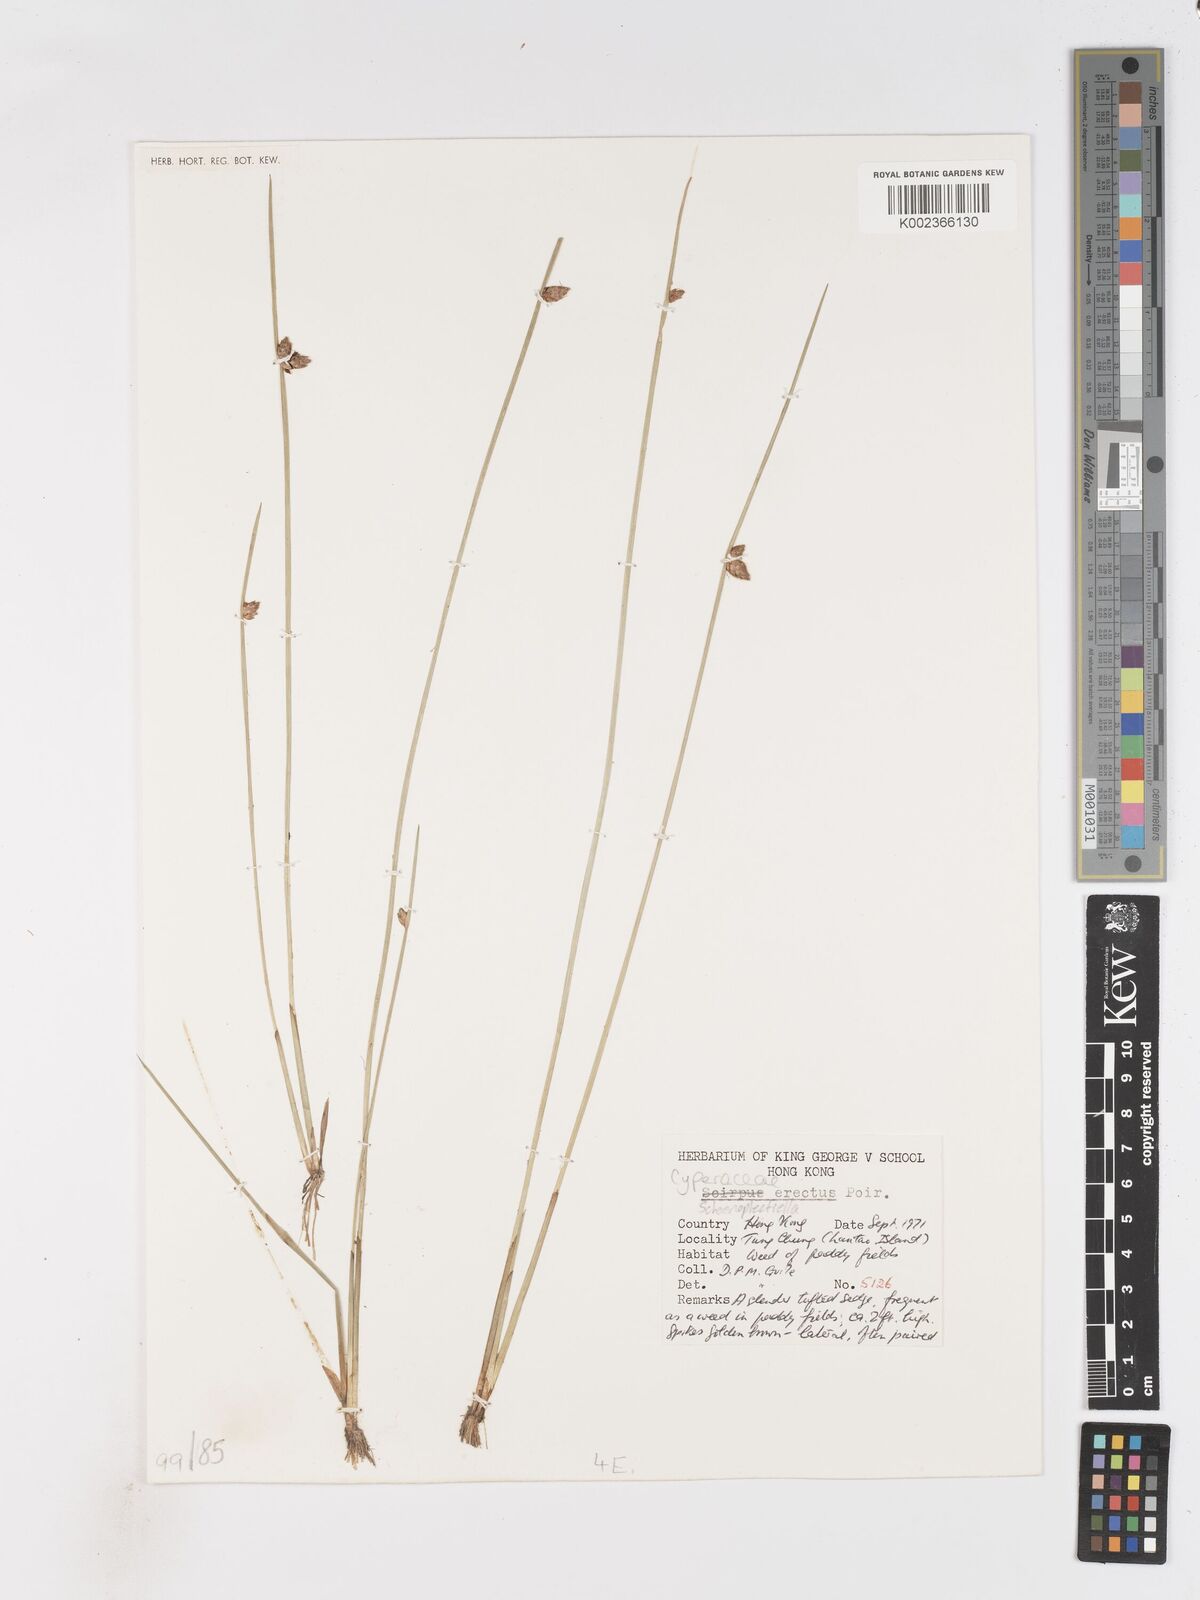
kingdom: Plantae
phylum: Tracheophyta
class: Liliopsida
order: Poales
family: Cyperaceae
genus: Schoenoplectiella
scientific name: Schoenoplectiella erecta
